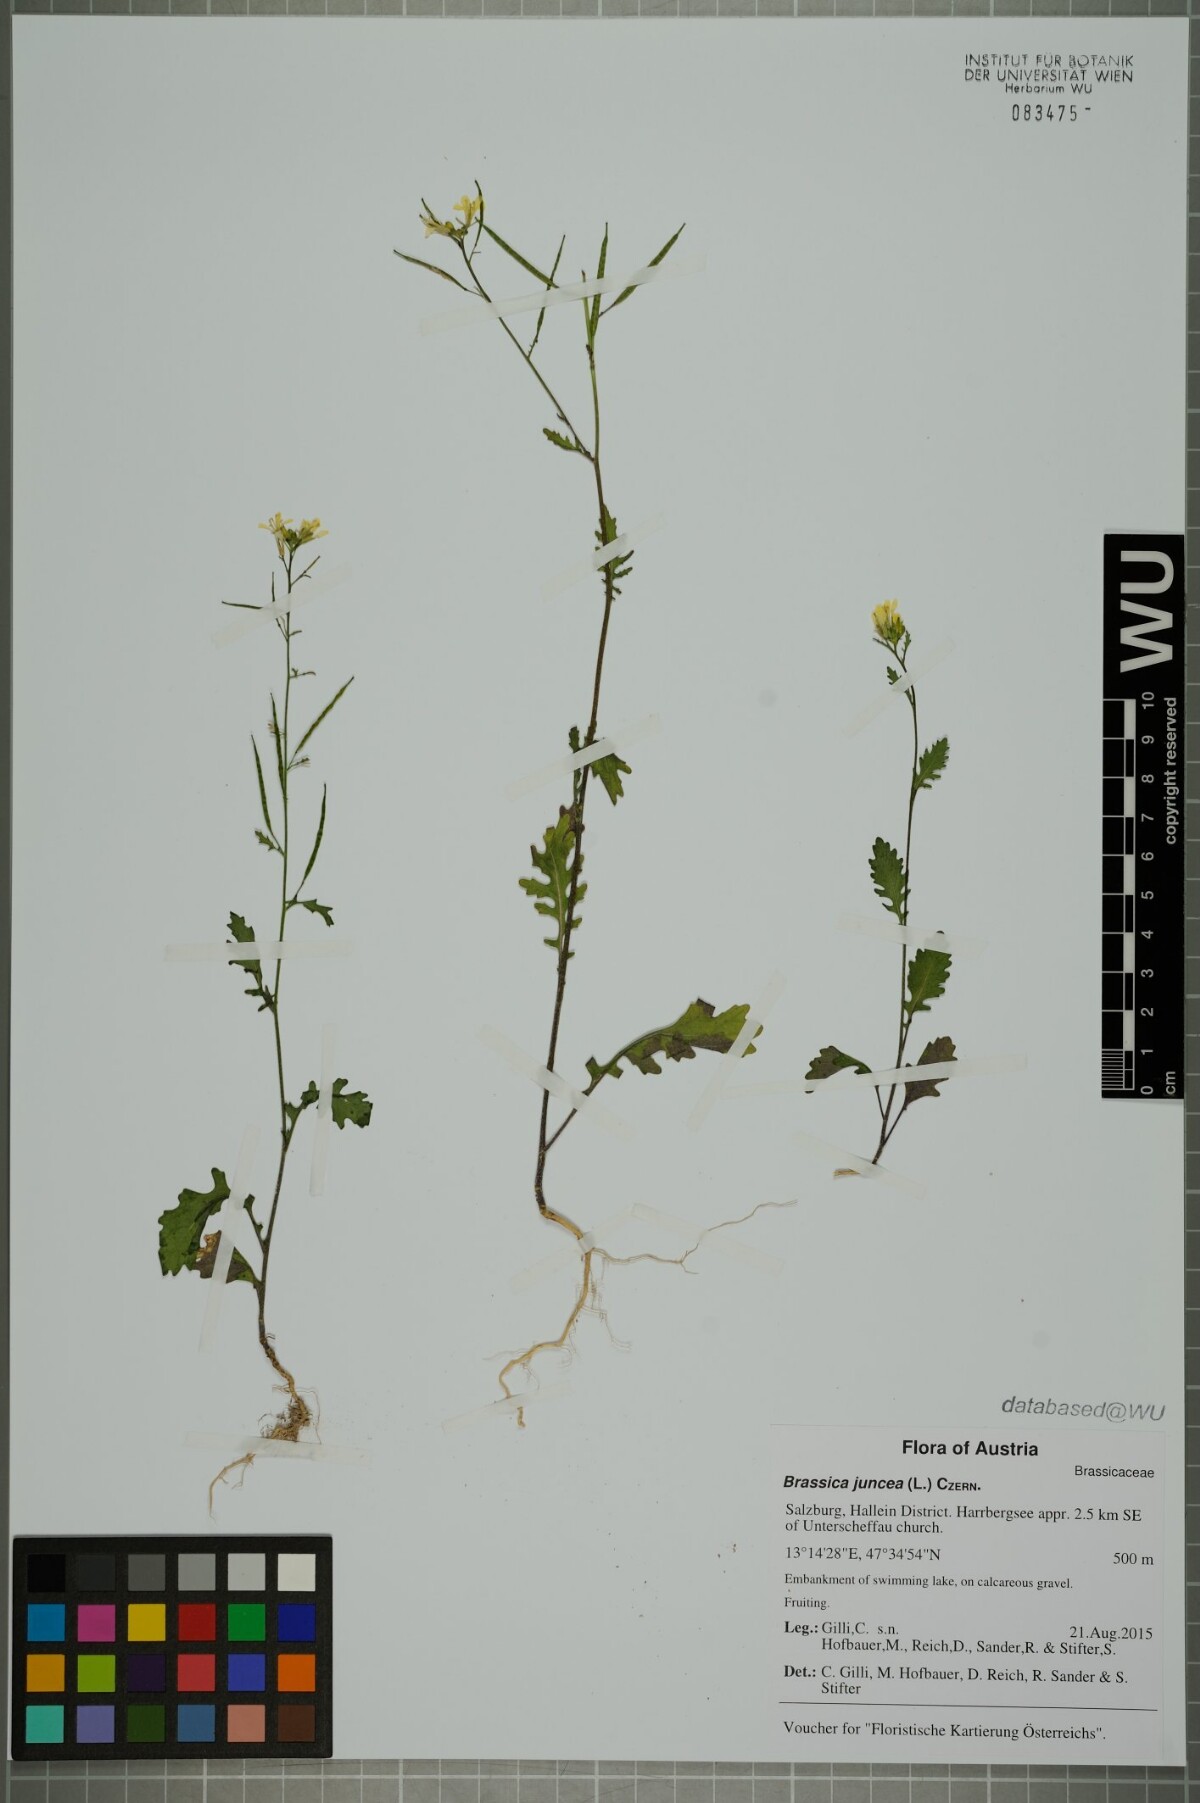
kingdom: Plantae
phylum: Tracheophyta
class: Magnoliopsida
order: Brassicales
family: Brassicaceae
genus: Brassica
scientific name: Brassica juncea
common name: Brown mustard
